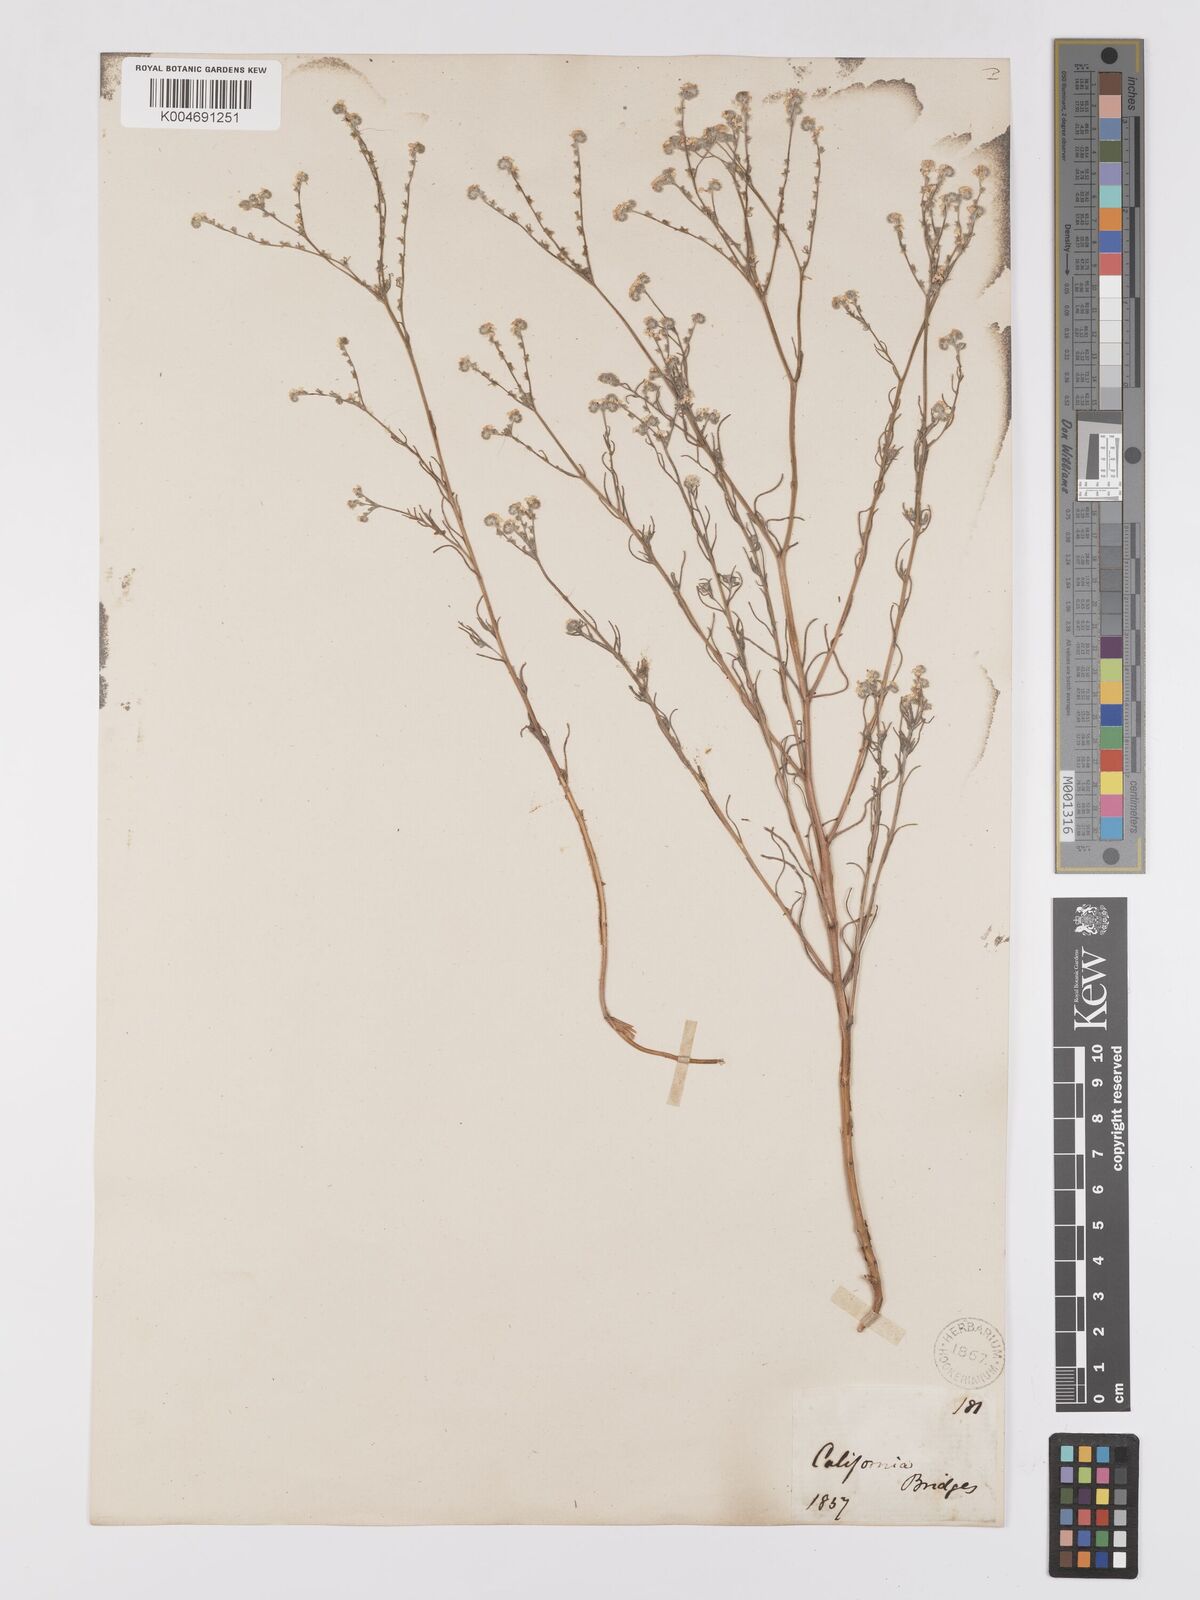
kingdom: Plantae
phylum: Tracheophyta
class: Magnoliopsida
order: Boraginales
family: Boraginaceae
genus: Cryptantha
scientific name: Cryptantha flaccida
